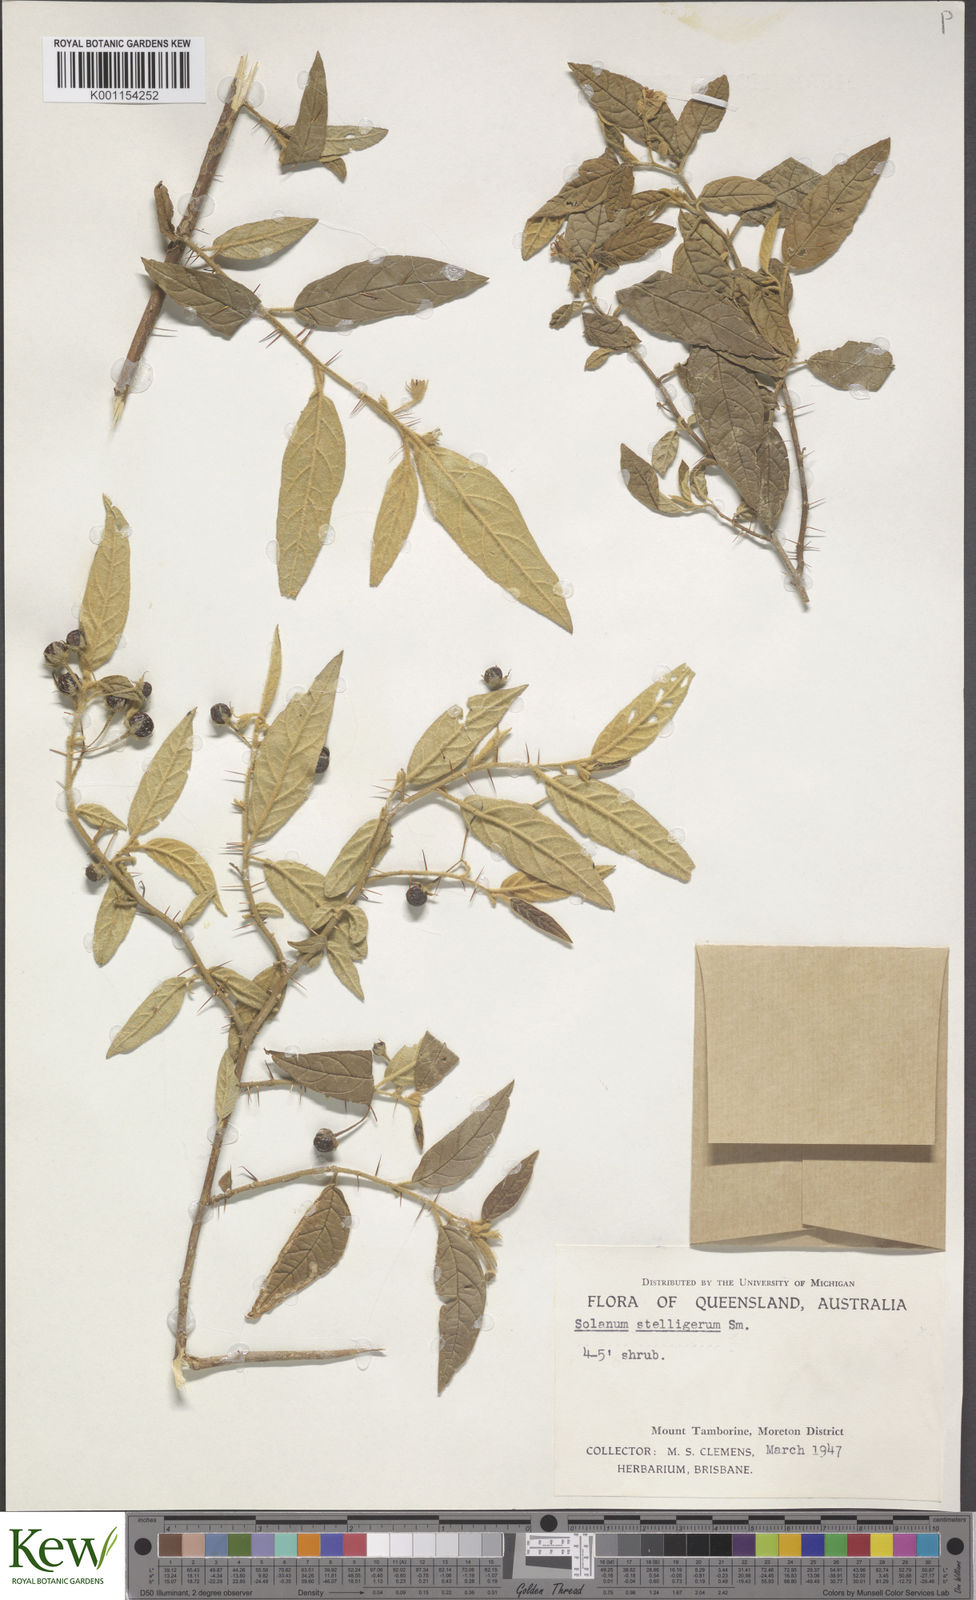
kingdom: Plantae
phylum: Tracheophyta
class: Magnoliopsida
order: Solanales
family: Solanaceae
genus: Solanum
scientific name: Solanum stelligerum
